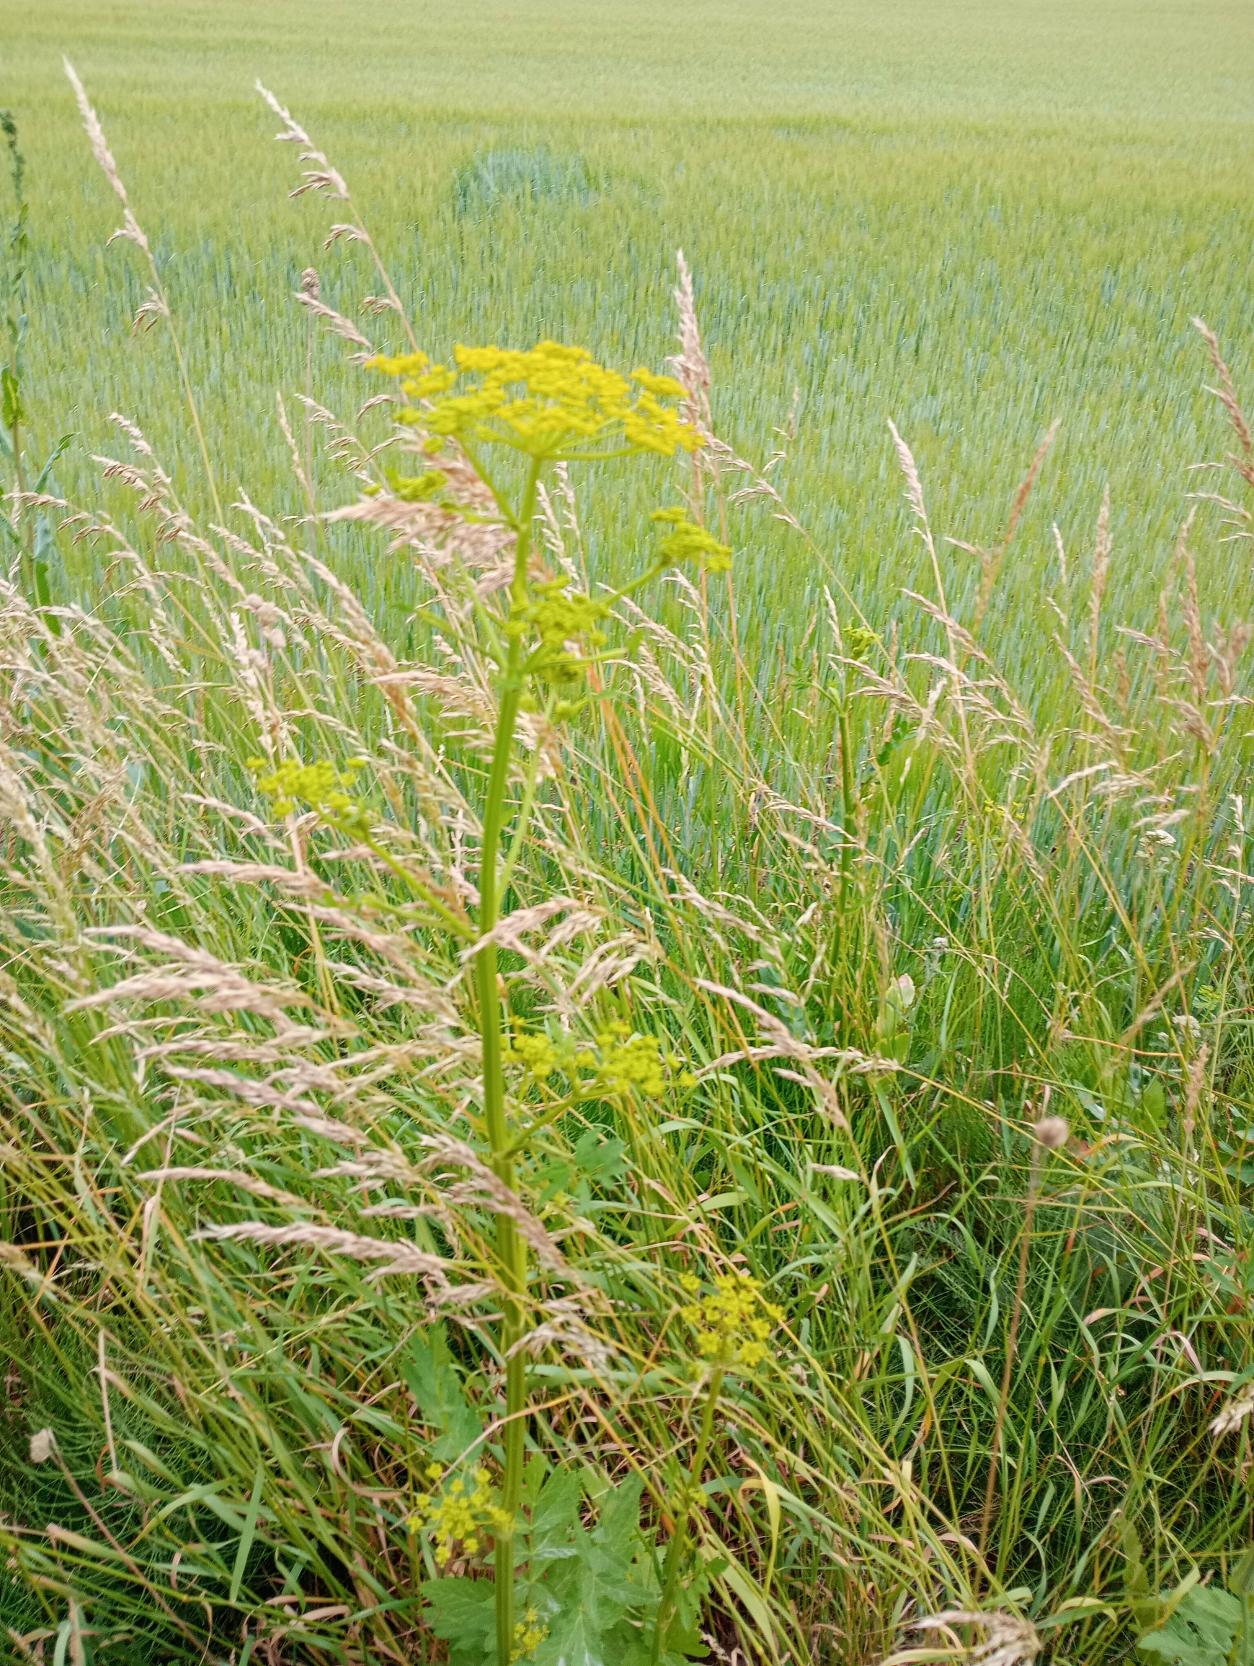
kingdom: Plantae
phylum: Tracheophyta
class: Magnoliopsida
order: Apiales
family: Apiaceae
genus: Pastinaca
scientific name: Pastinaca sativa
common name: Pastinak
